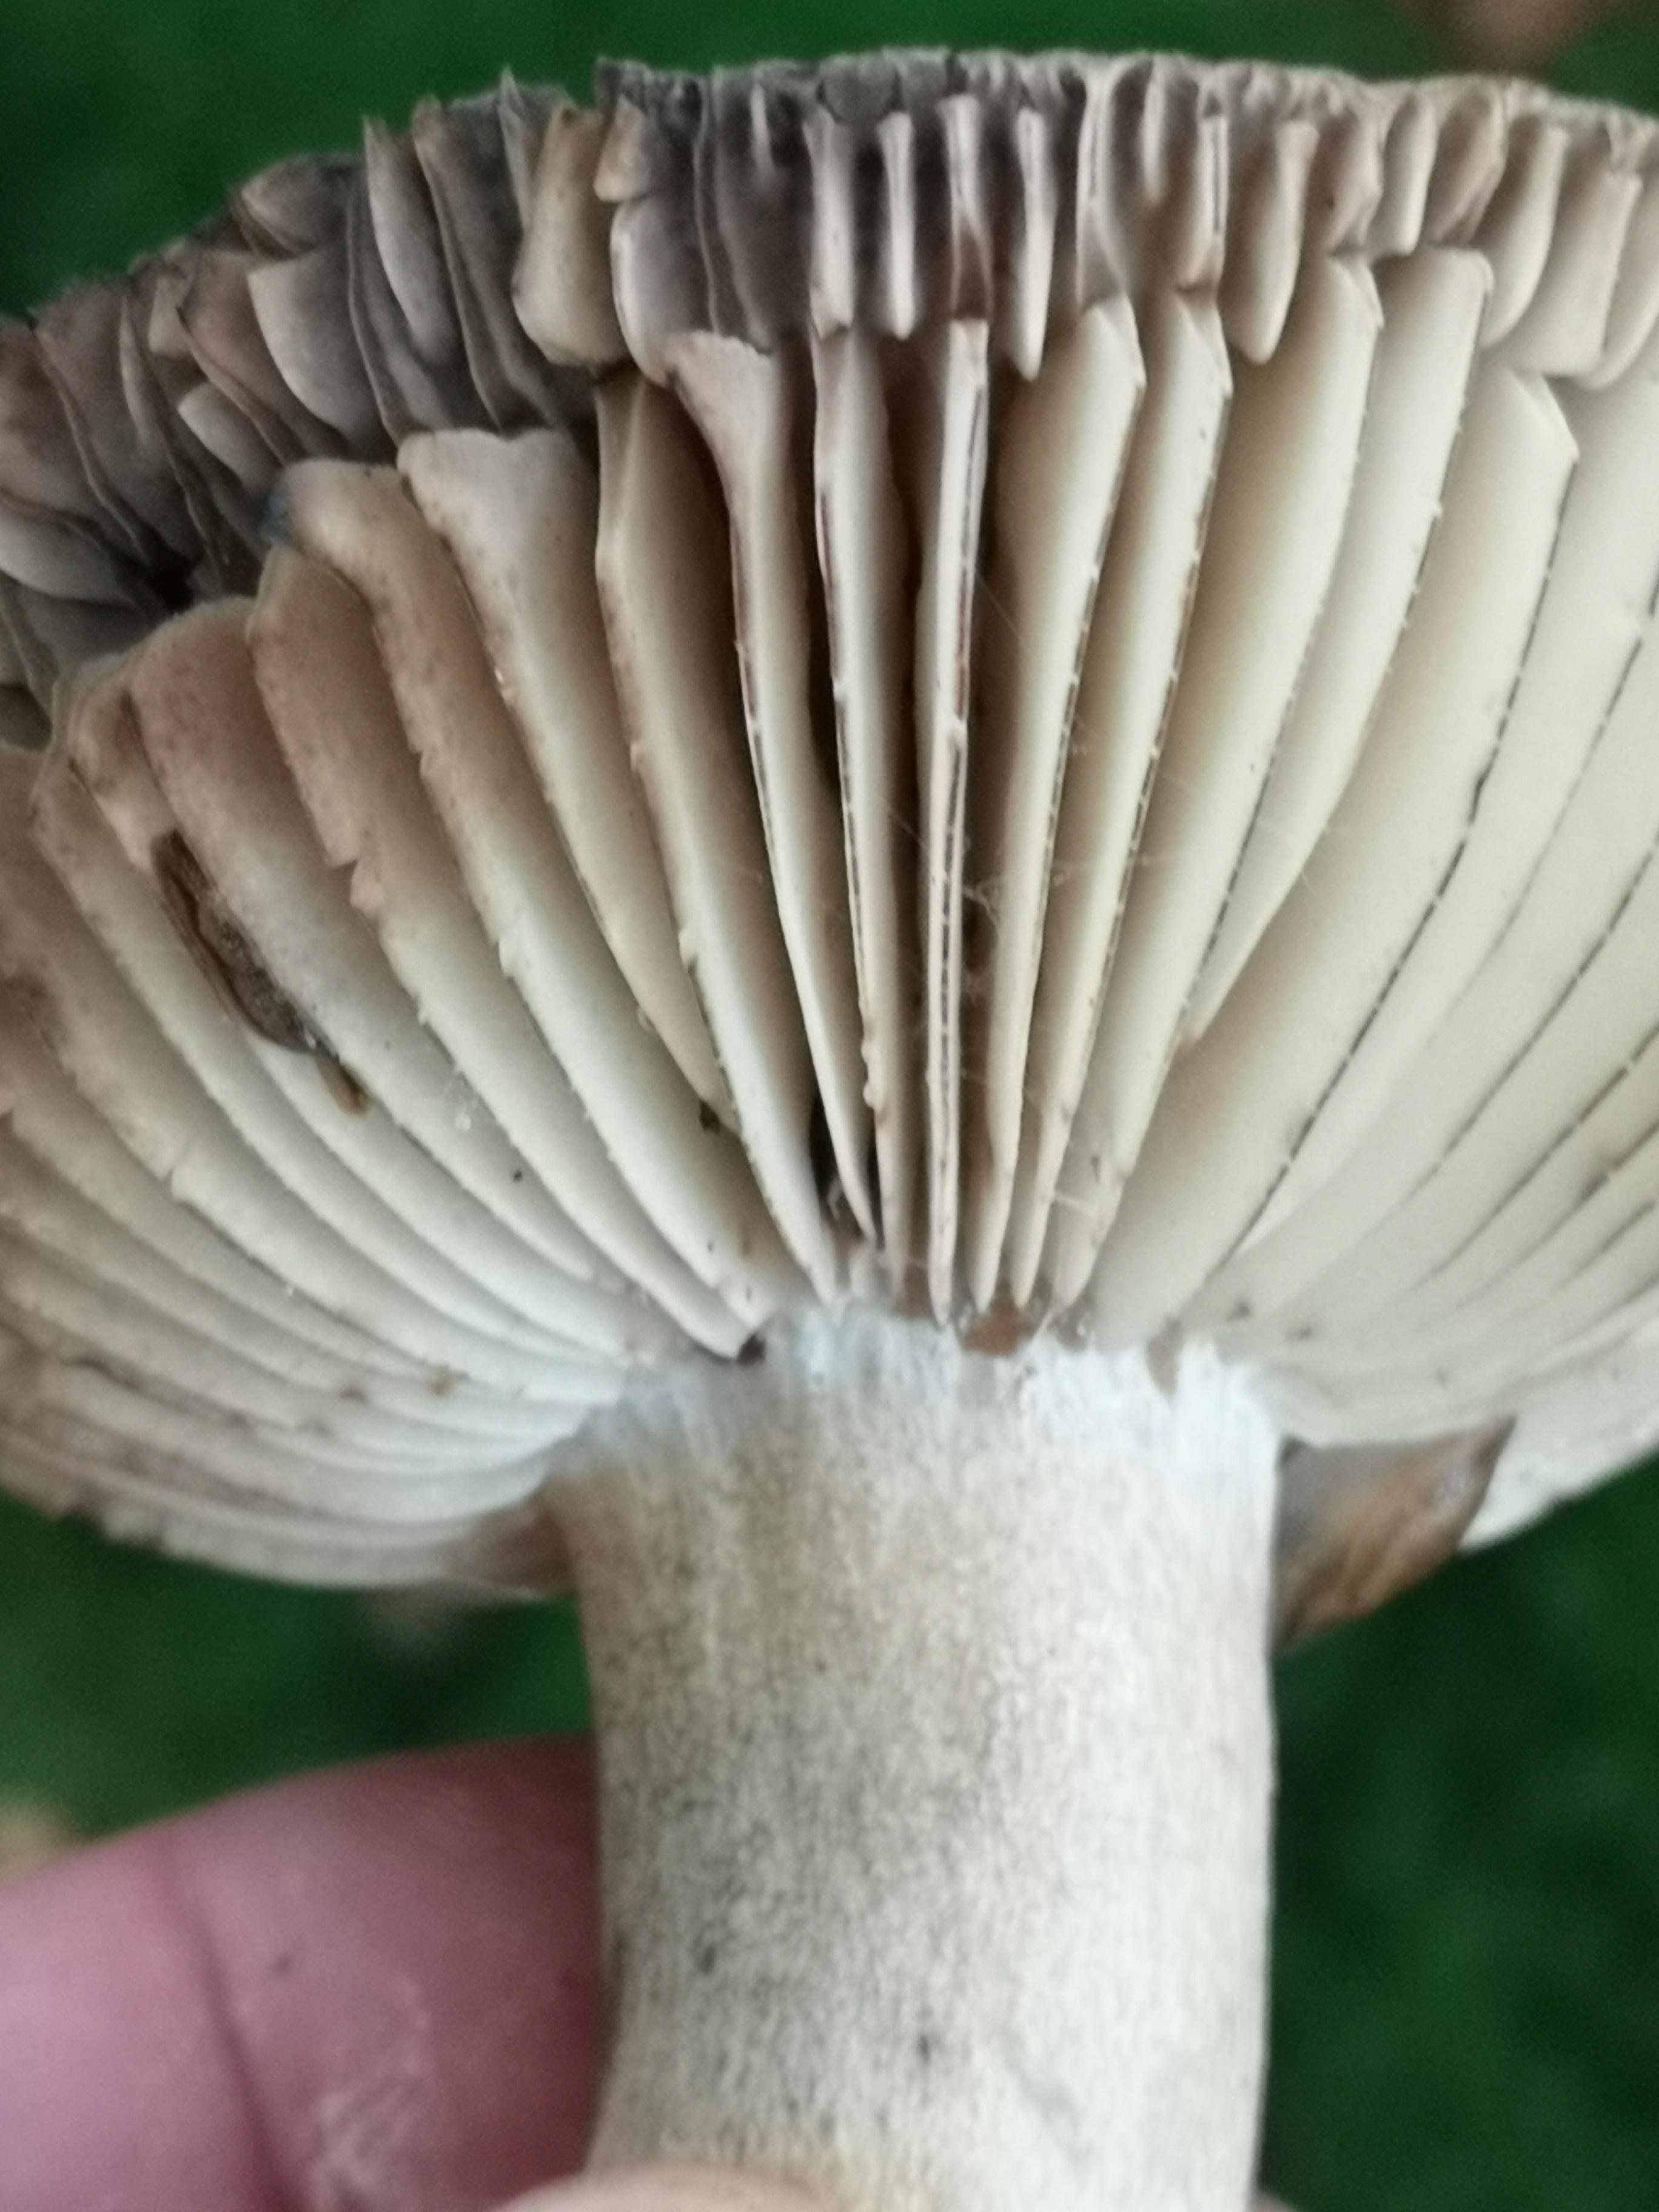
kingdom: Fungi
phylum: Basidiomycota
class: Agaricomycetes
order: Russulales
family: Russulaceae
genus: Russula
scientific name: Russula adusta
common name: sværtende skørhat
